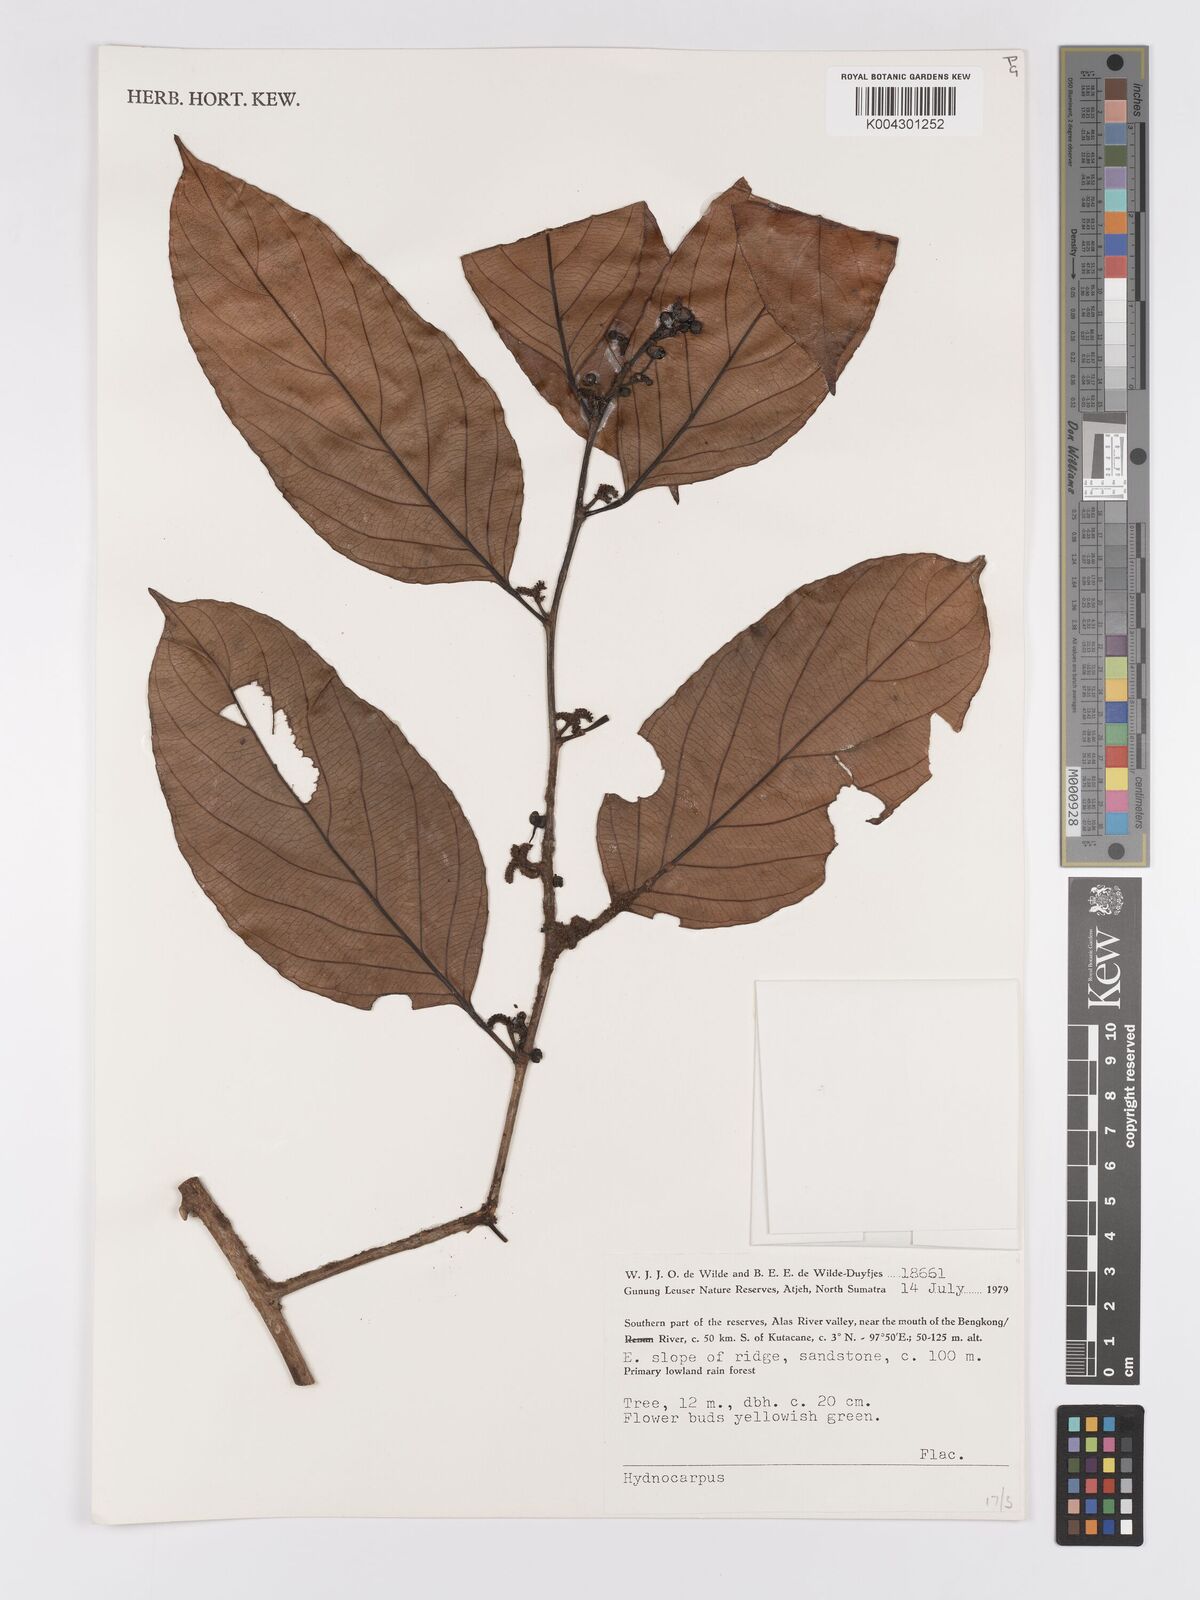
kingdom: Plantae
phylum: Tracheophyta
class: Magnoliopsida
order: Malpighiales
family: Achariaceae
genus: Hydnocarpus
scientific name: Hydnocarpus
